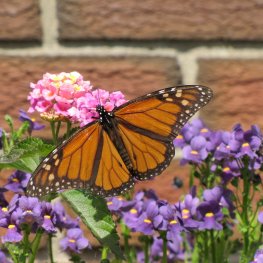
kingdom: Animalia
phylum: Arthropoda
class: Insecta
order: Lepidoptera
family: Nymphalidae
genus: Danaus
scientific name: Danaus plexippus
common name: Monarch
